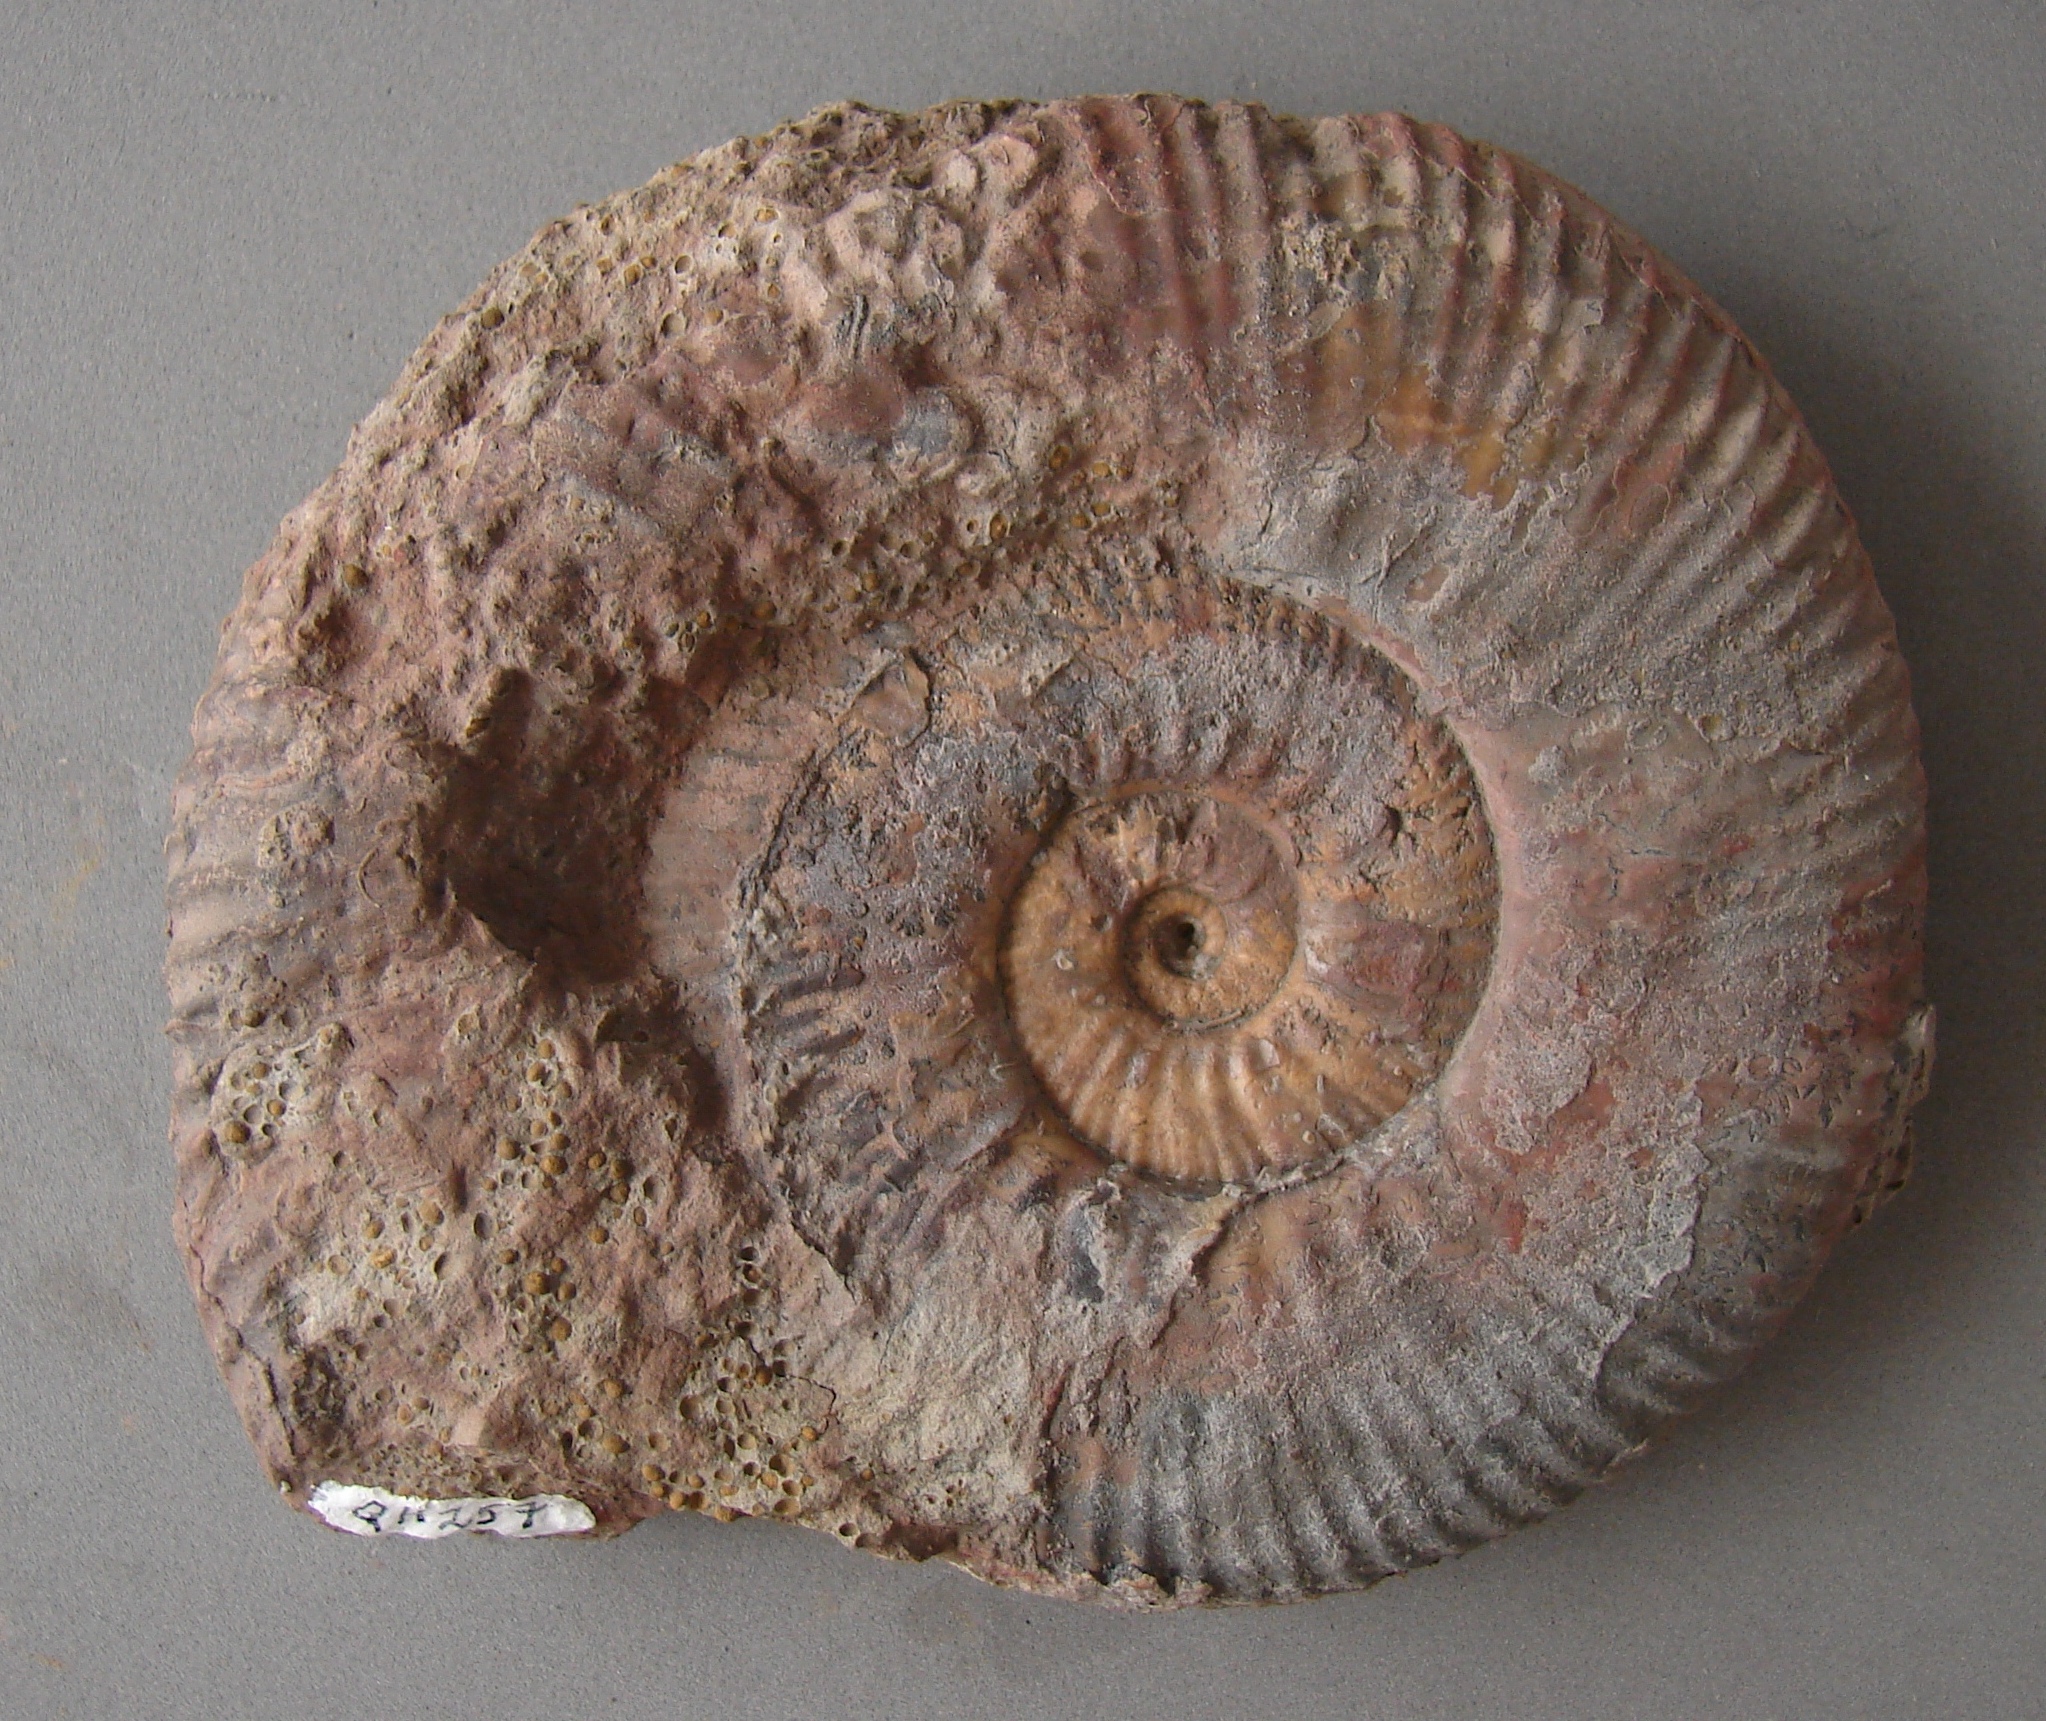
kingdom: Animalia
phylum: Mollusca
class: Cephalopoda
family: Hammatoceratidae
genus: Crestaites
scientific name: Crestaites meneghinii
